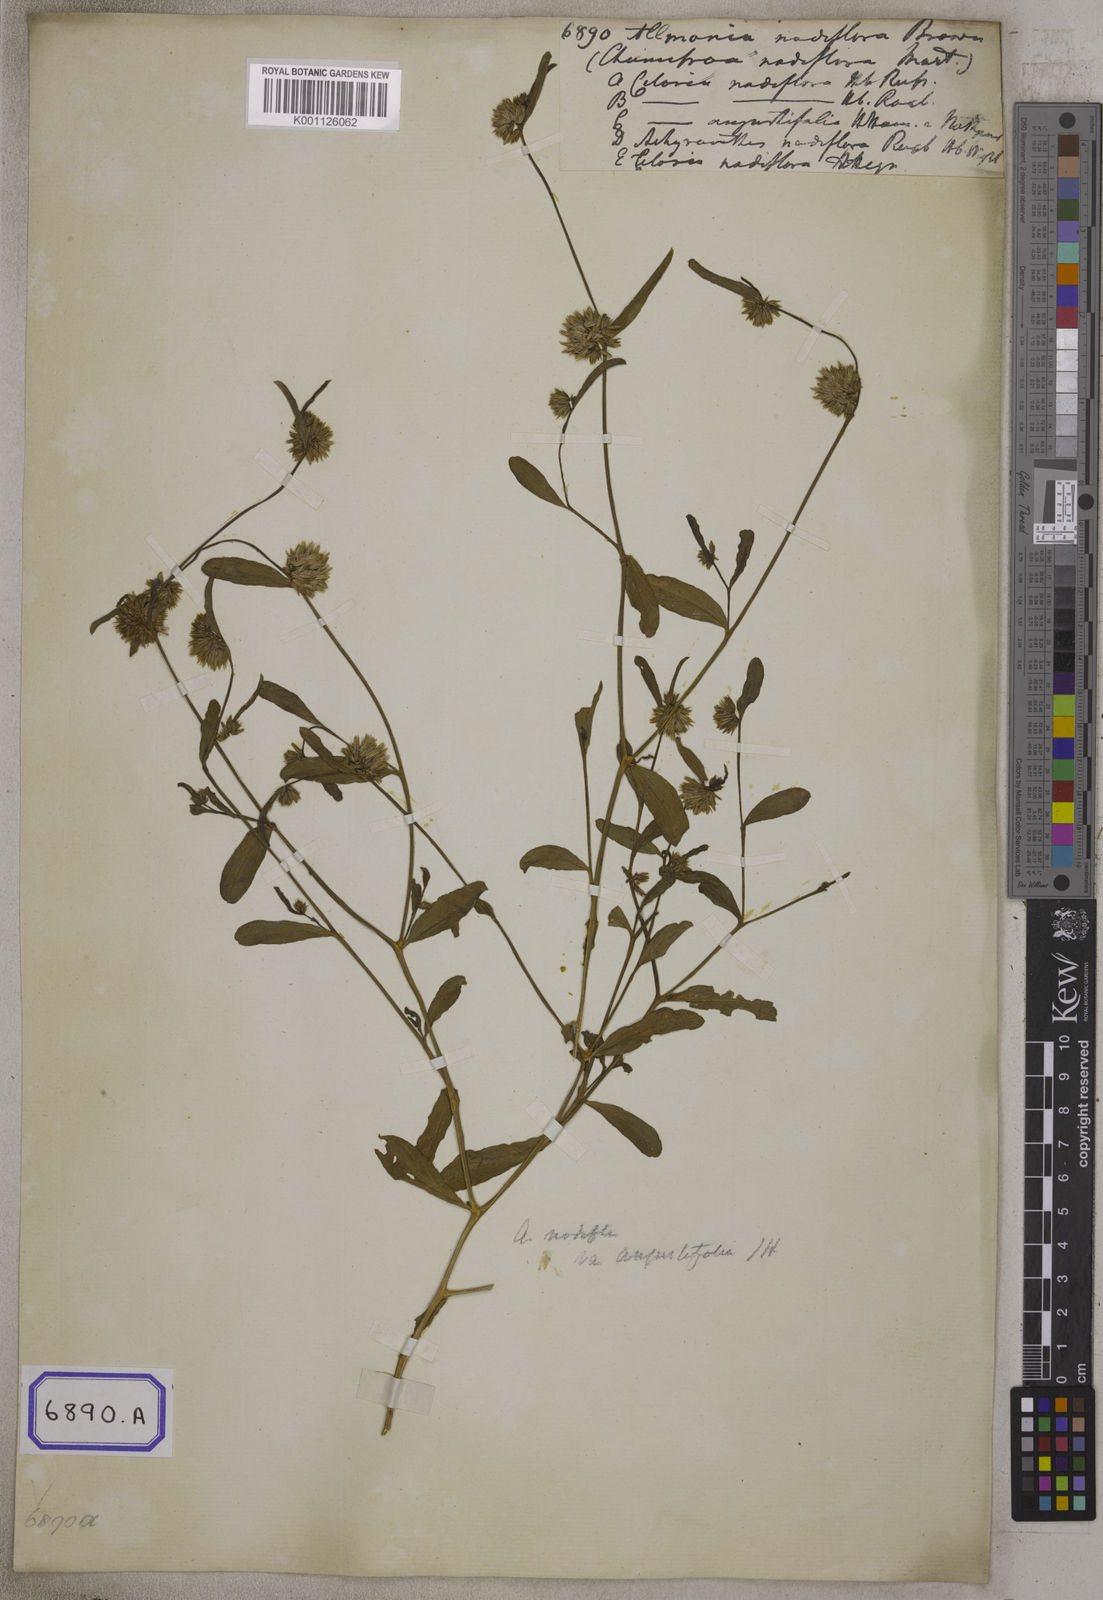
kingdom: Plantae
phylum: Tracheophyta
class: Magnoliopsida
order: Caryophyllales
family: Amaranthaceae
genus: Allmania
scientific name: Allmania
